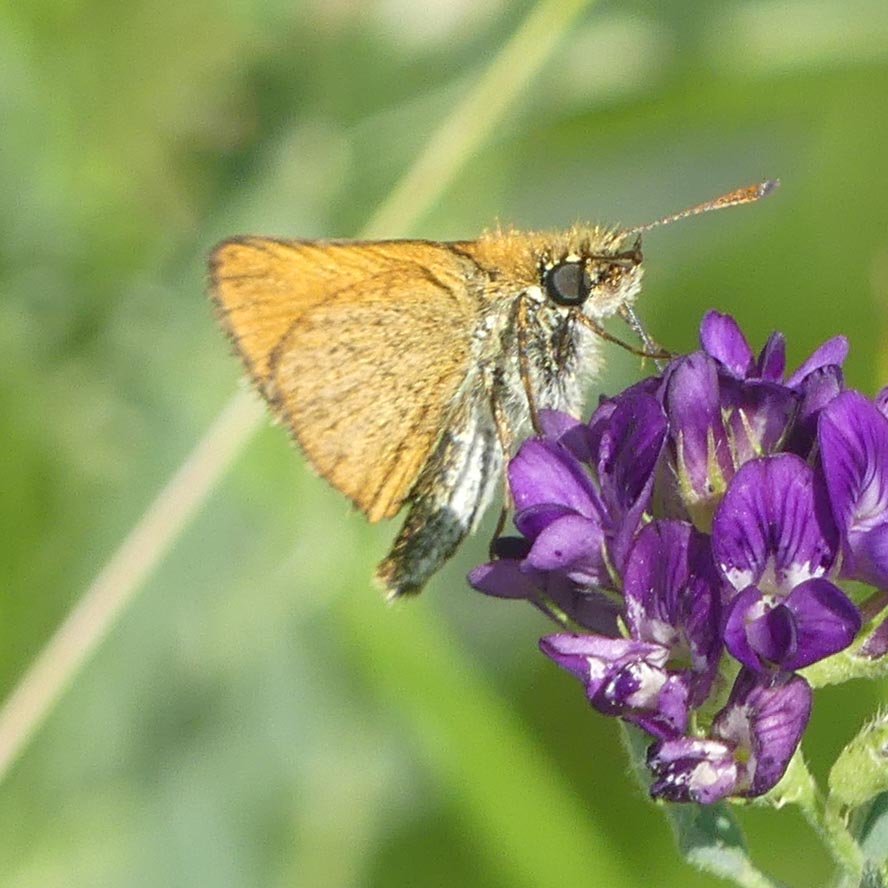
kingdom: Animalia
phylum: Arthropoda
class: Insecta
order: Lepidoptera
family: Hesperiidae
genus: Thymelicus
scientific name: Thymelicus lineola
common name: European Skipper
